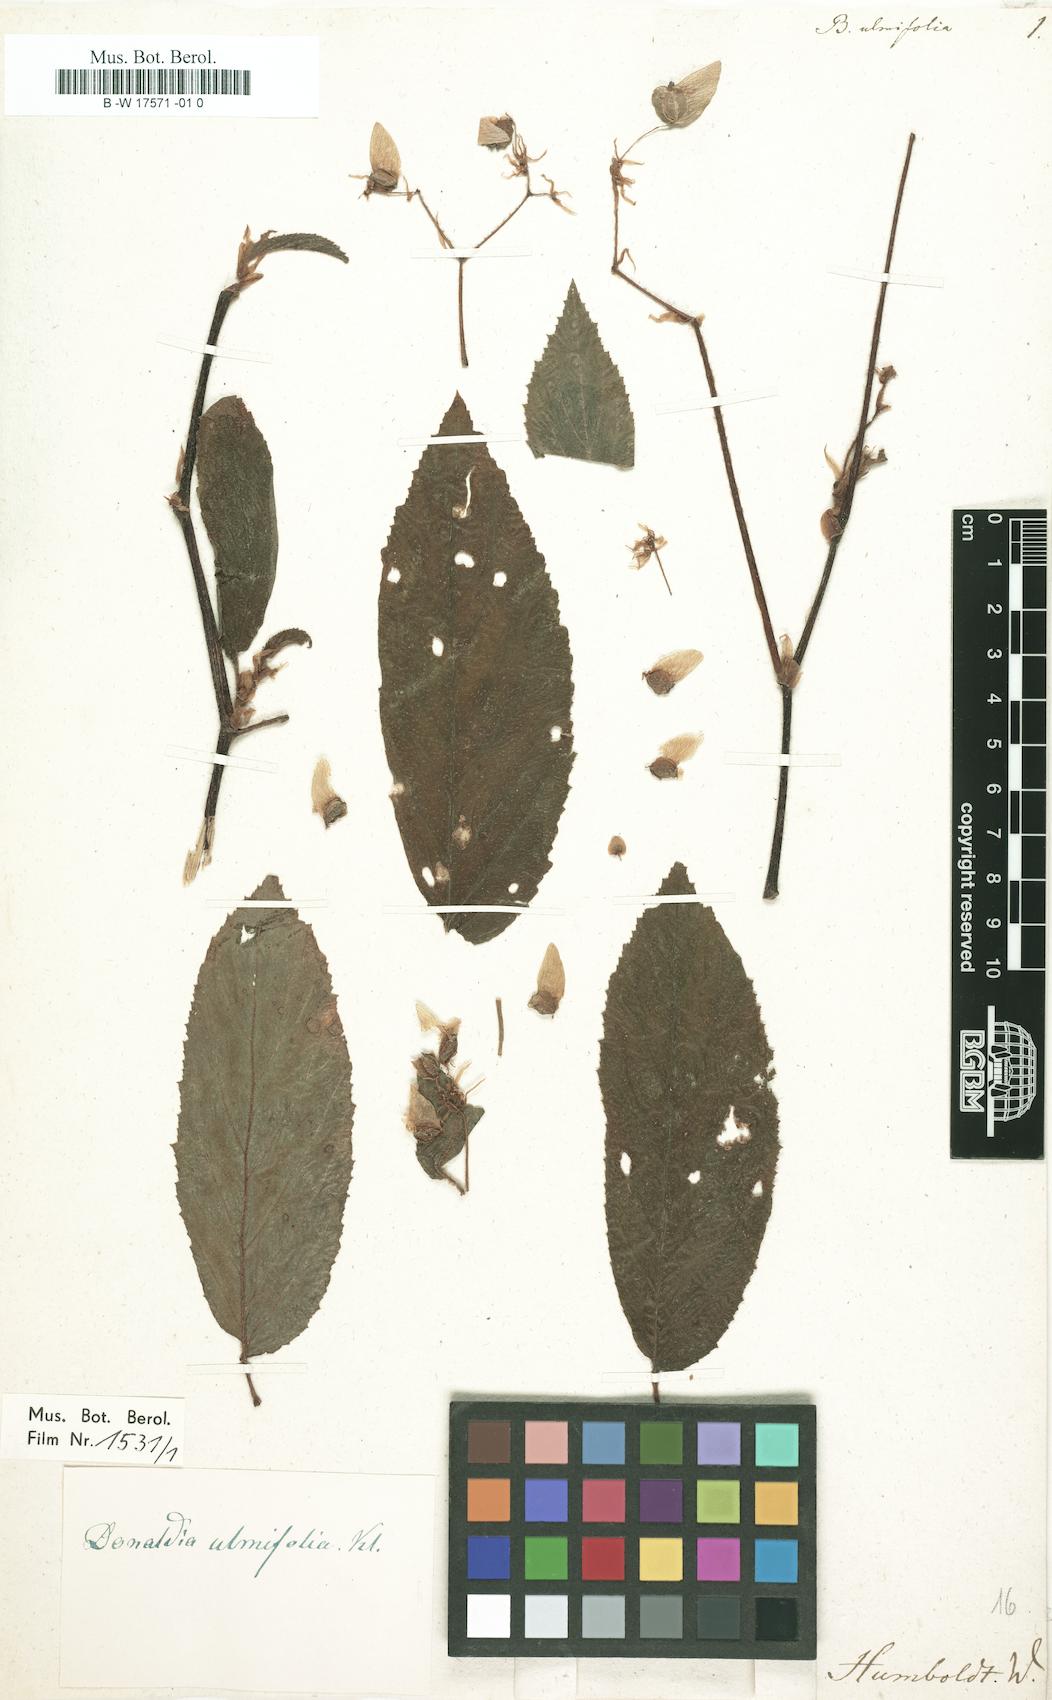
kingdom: Plantae
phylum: Tracheophyta
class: Magnoliopsida
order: Cucurbitales
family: Begoniaceae
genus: Begonia
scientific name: Begonia ulmifolia
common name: Elm-leaf begonia
